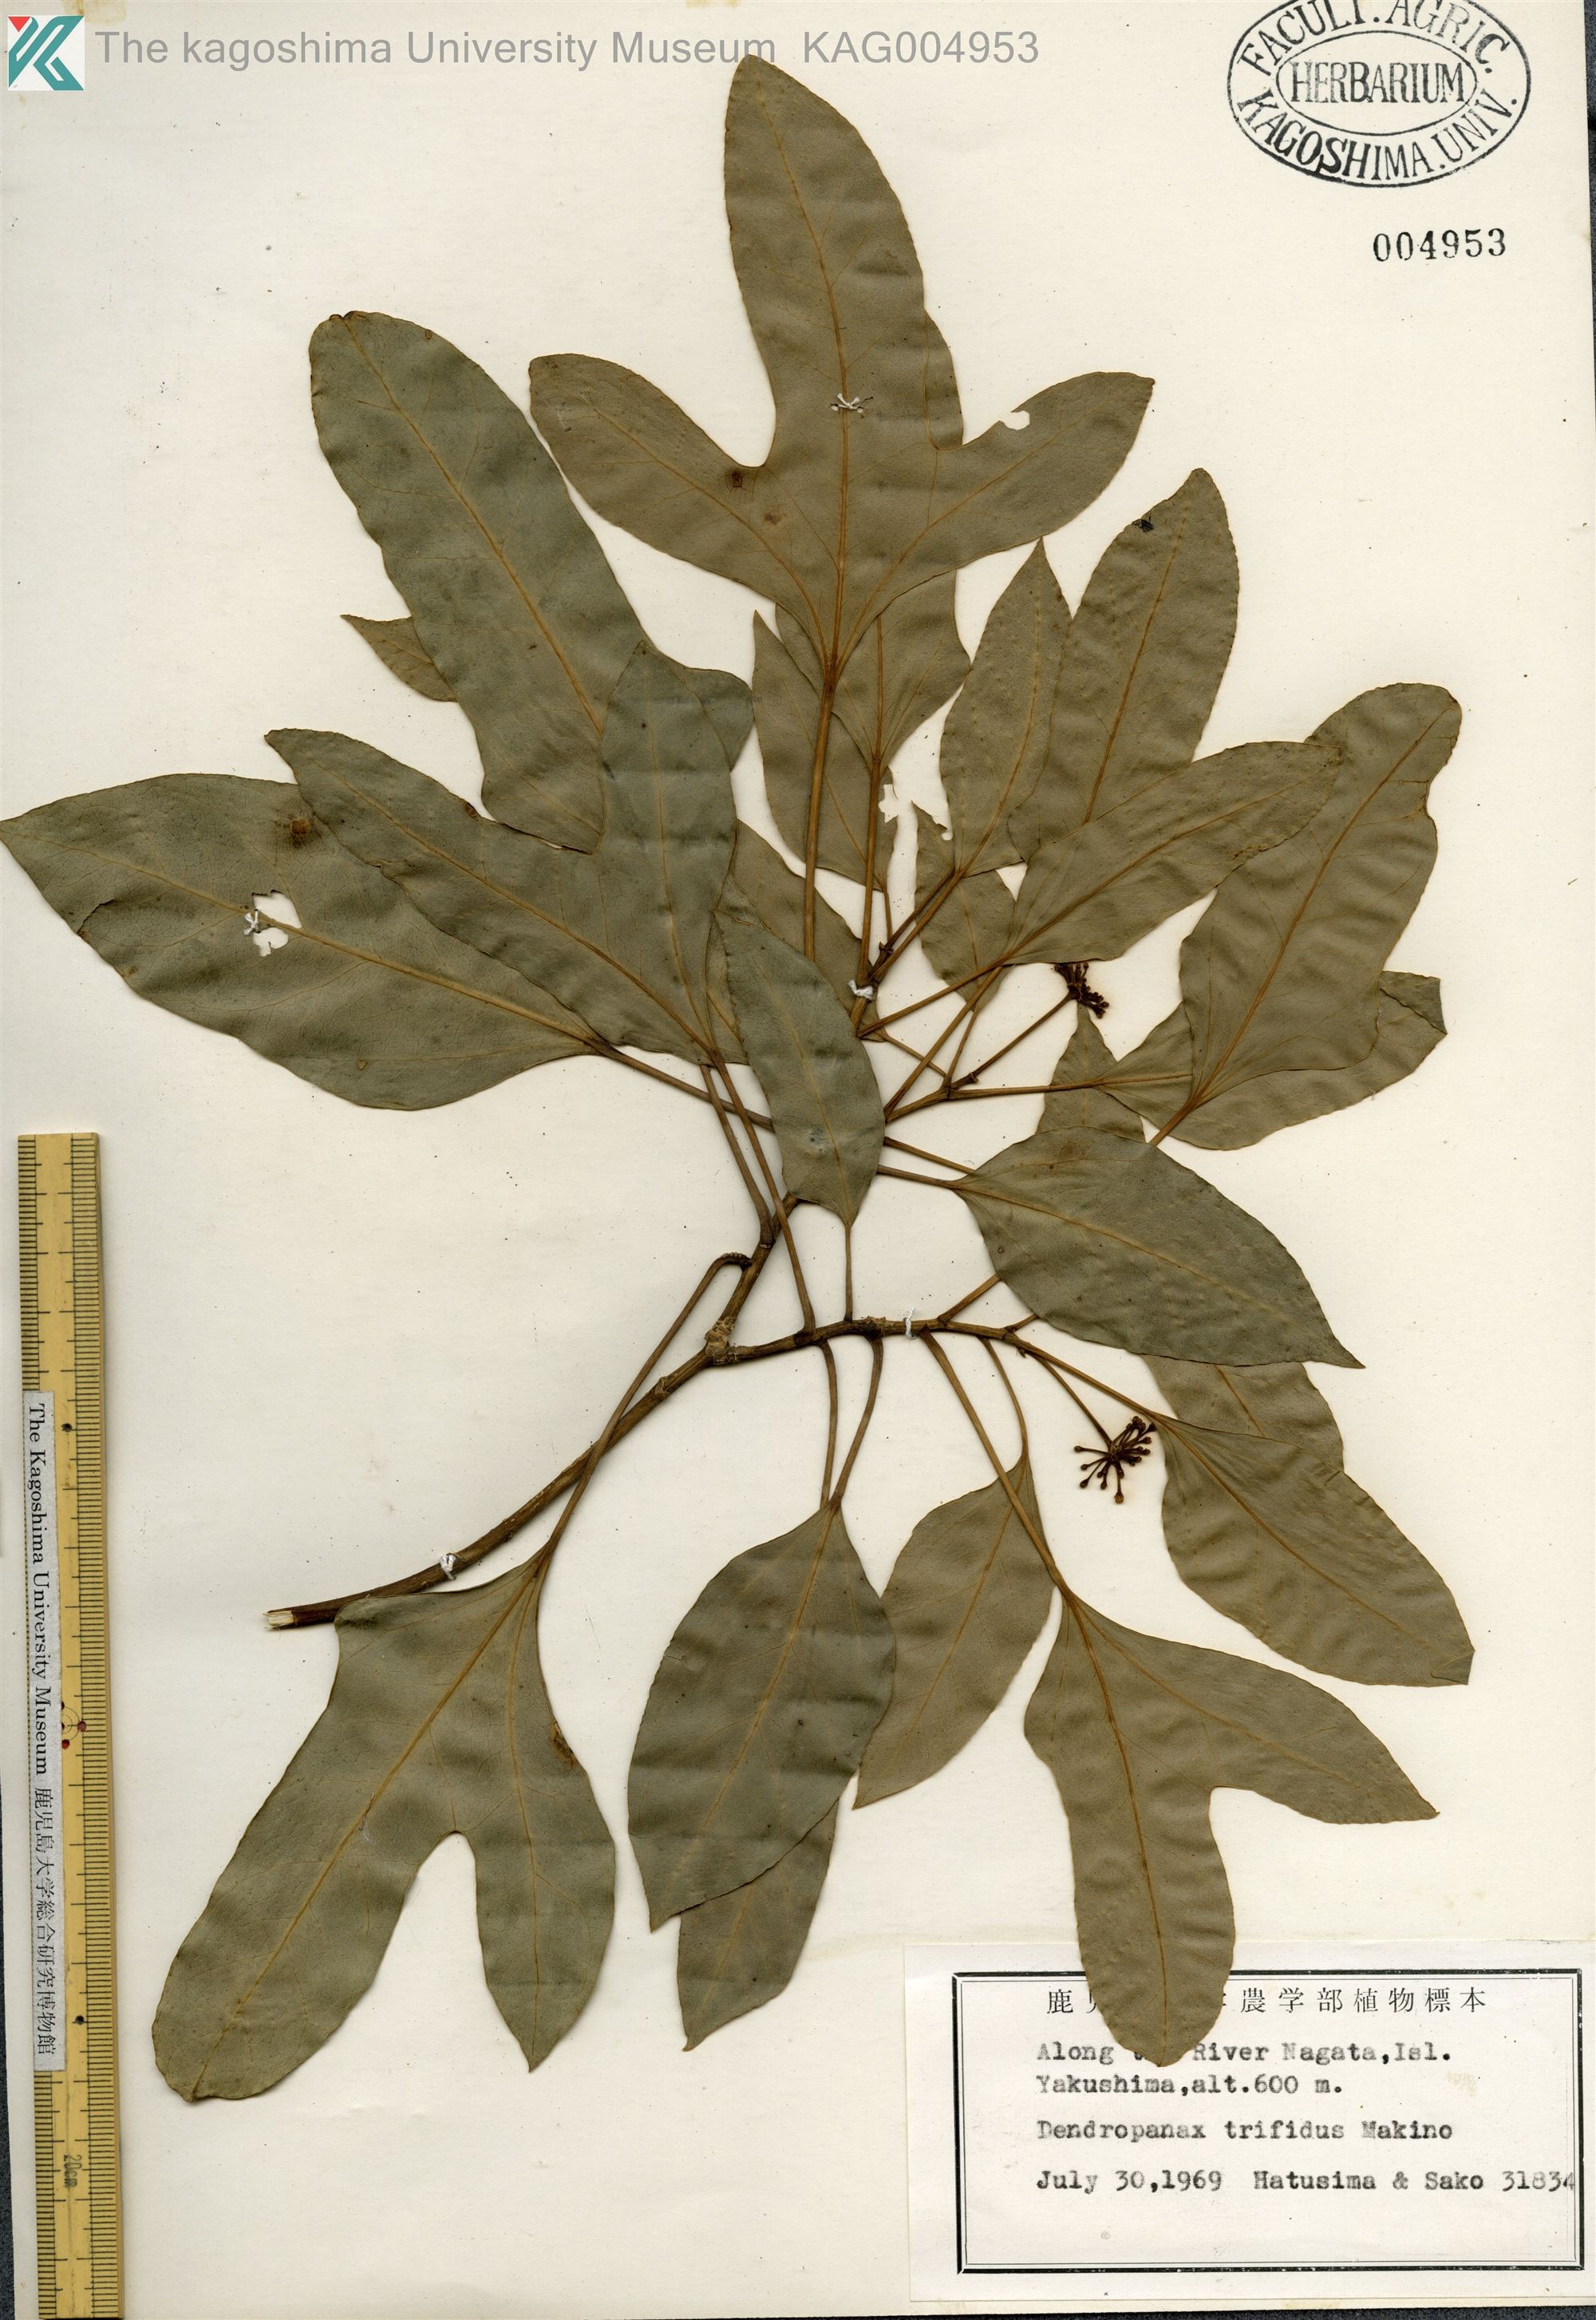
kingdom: Plantae
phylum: Tracheophyta
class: Magnoliopsida
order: Apiales
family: Araliaceae
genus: Dendropanax
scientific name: Dendropanax trifidus
